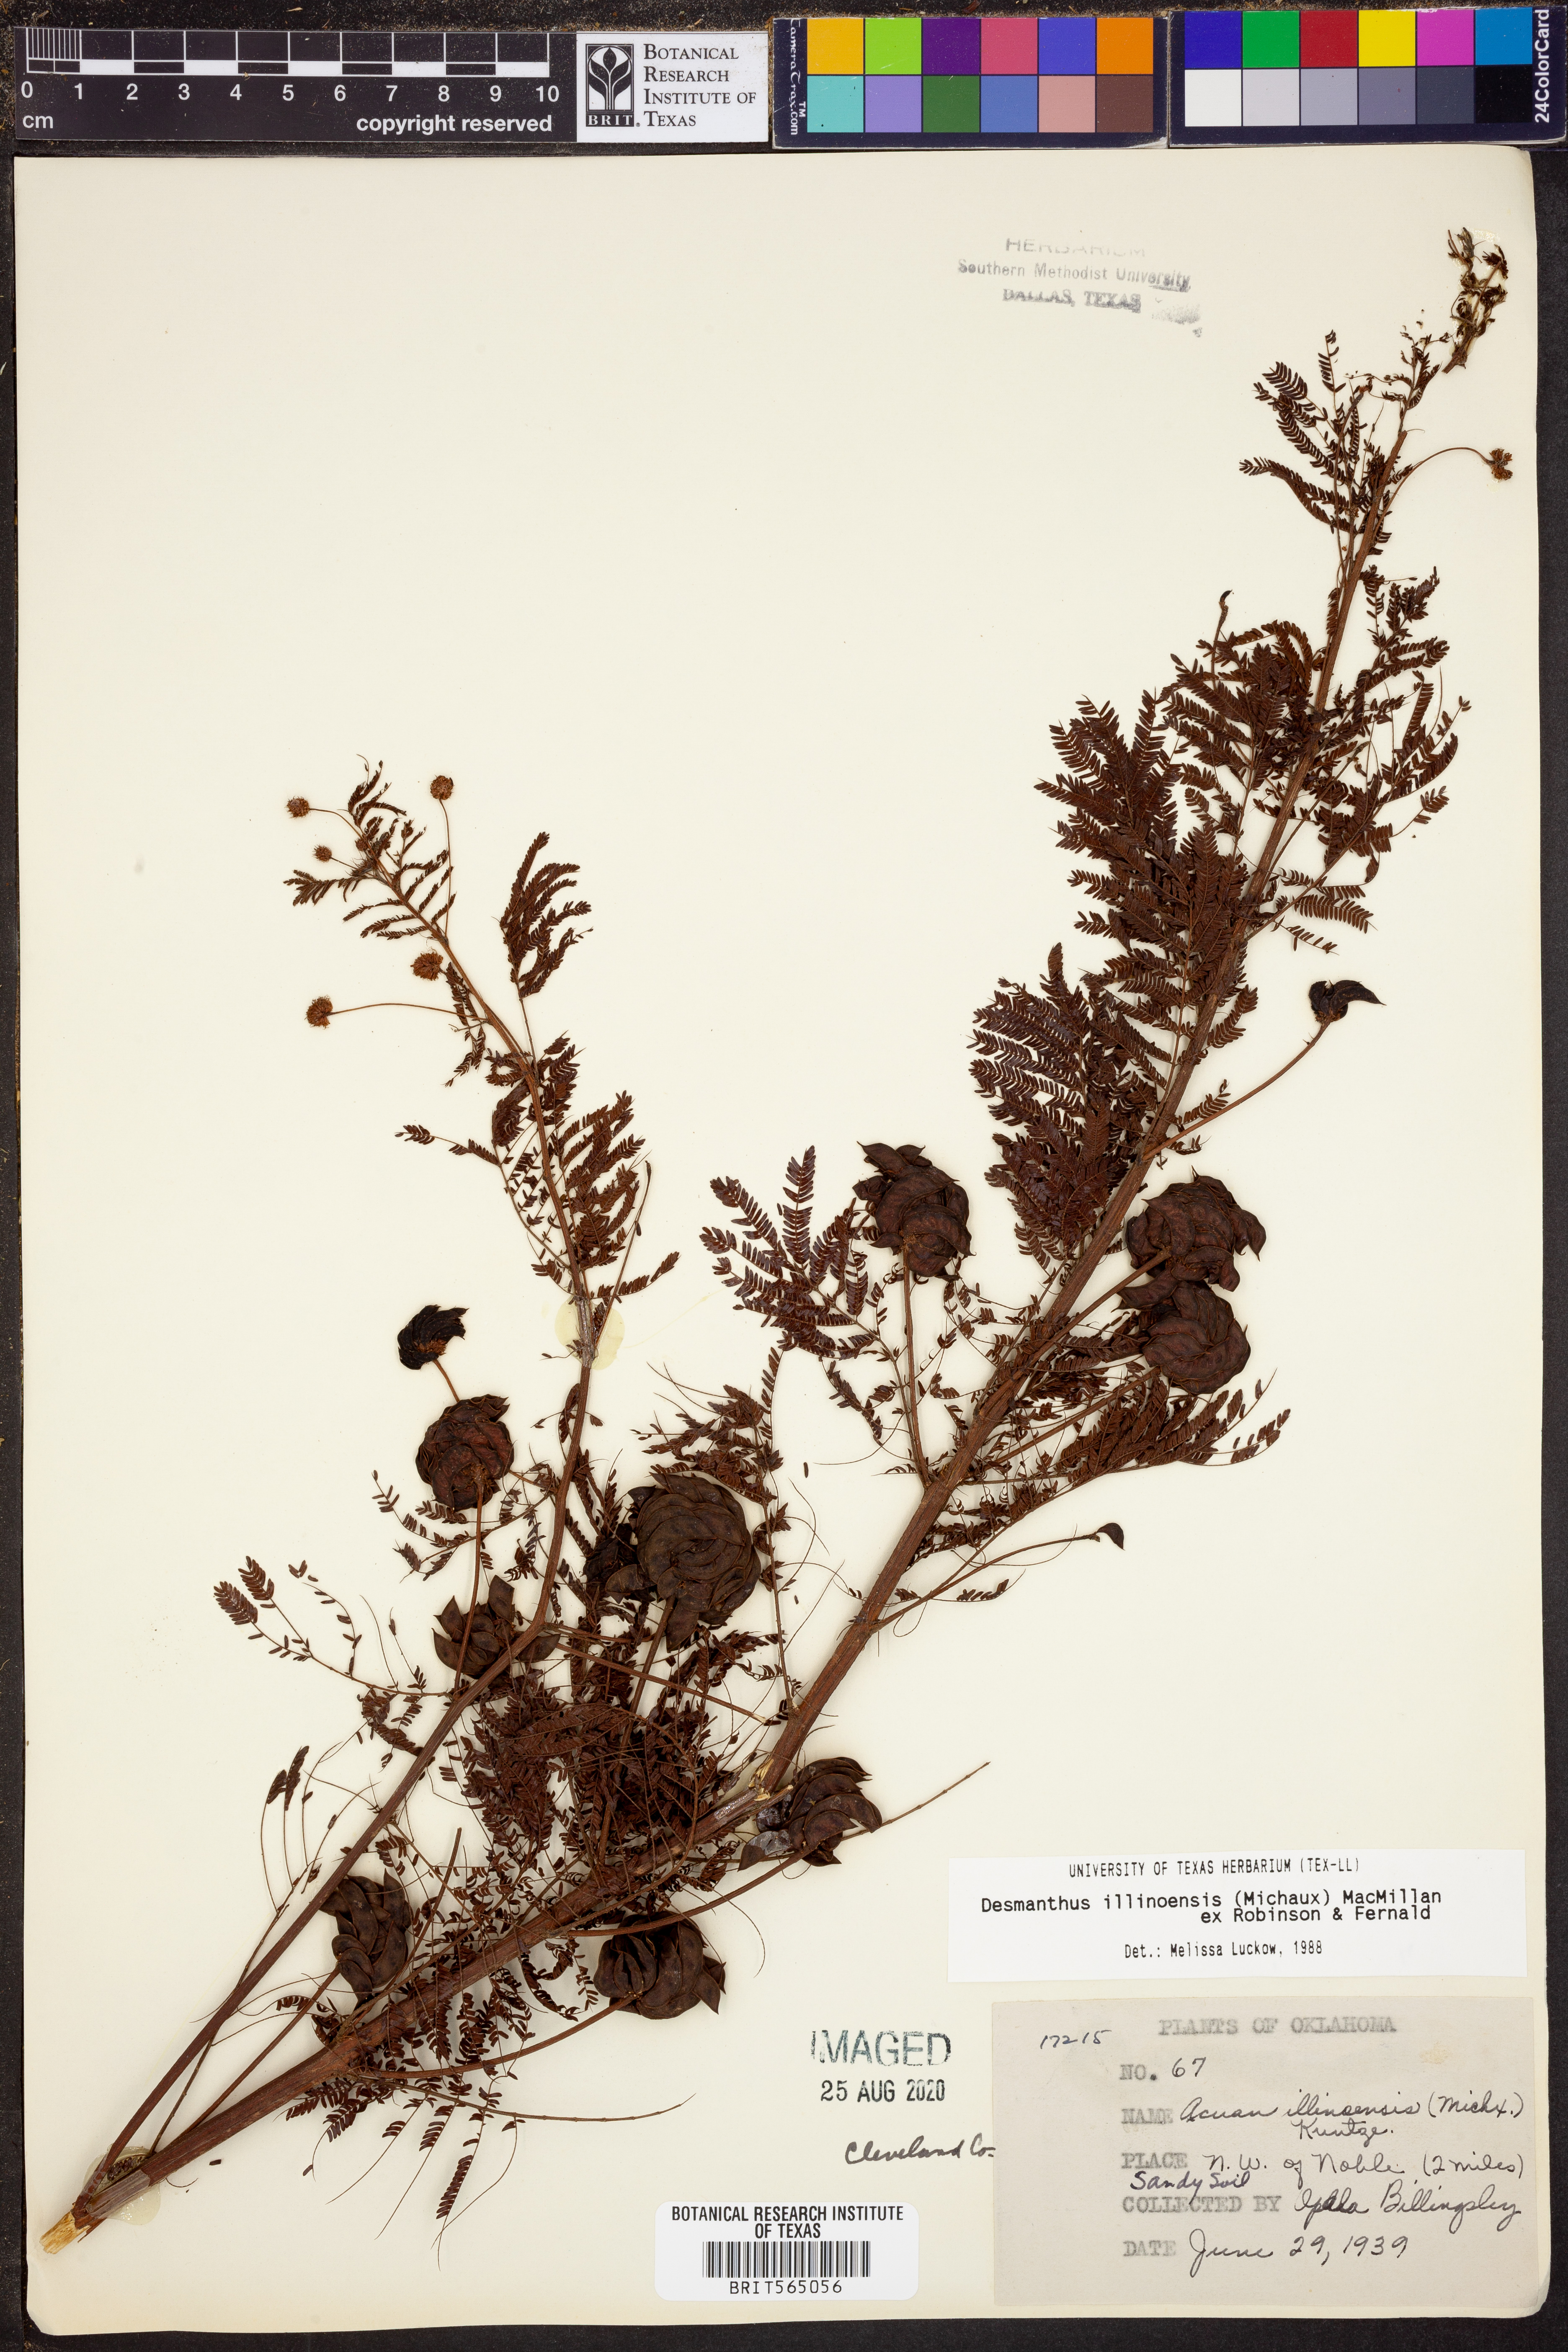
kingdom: Plantae
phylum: Tracheophyta
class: Magnoliopsida
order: Fabales
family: Fabaceae
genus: Desmanthus
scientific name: Desmanthus illinoensis
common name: Illinois bundle-flower
